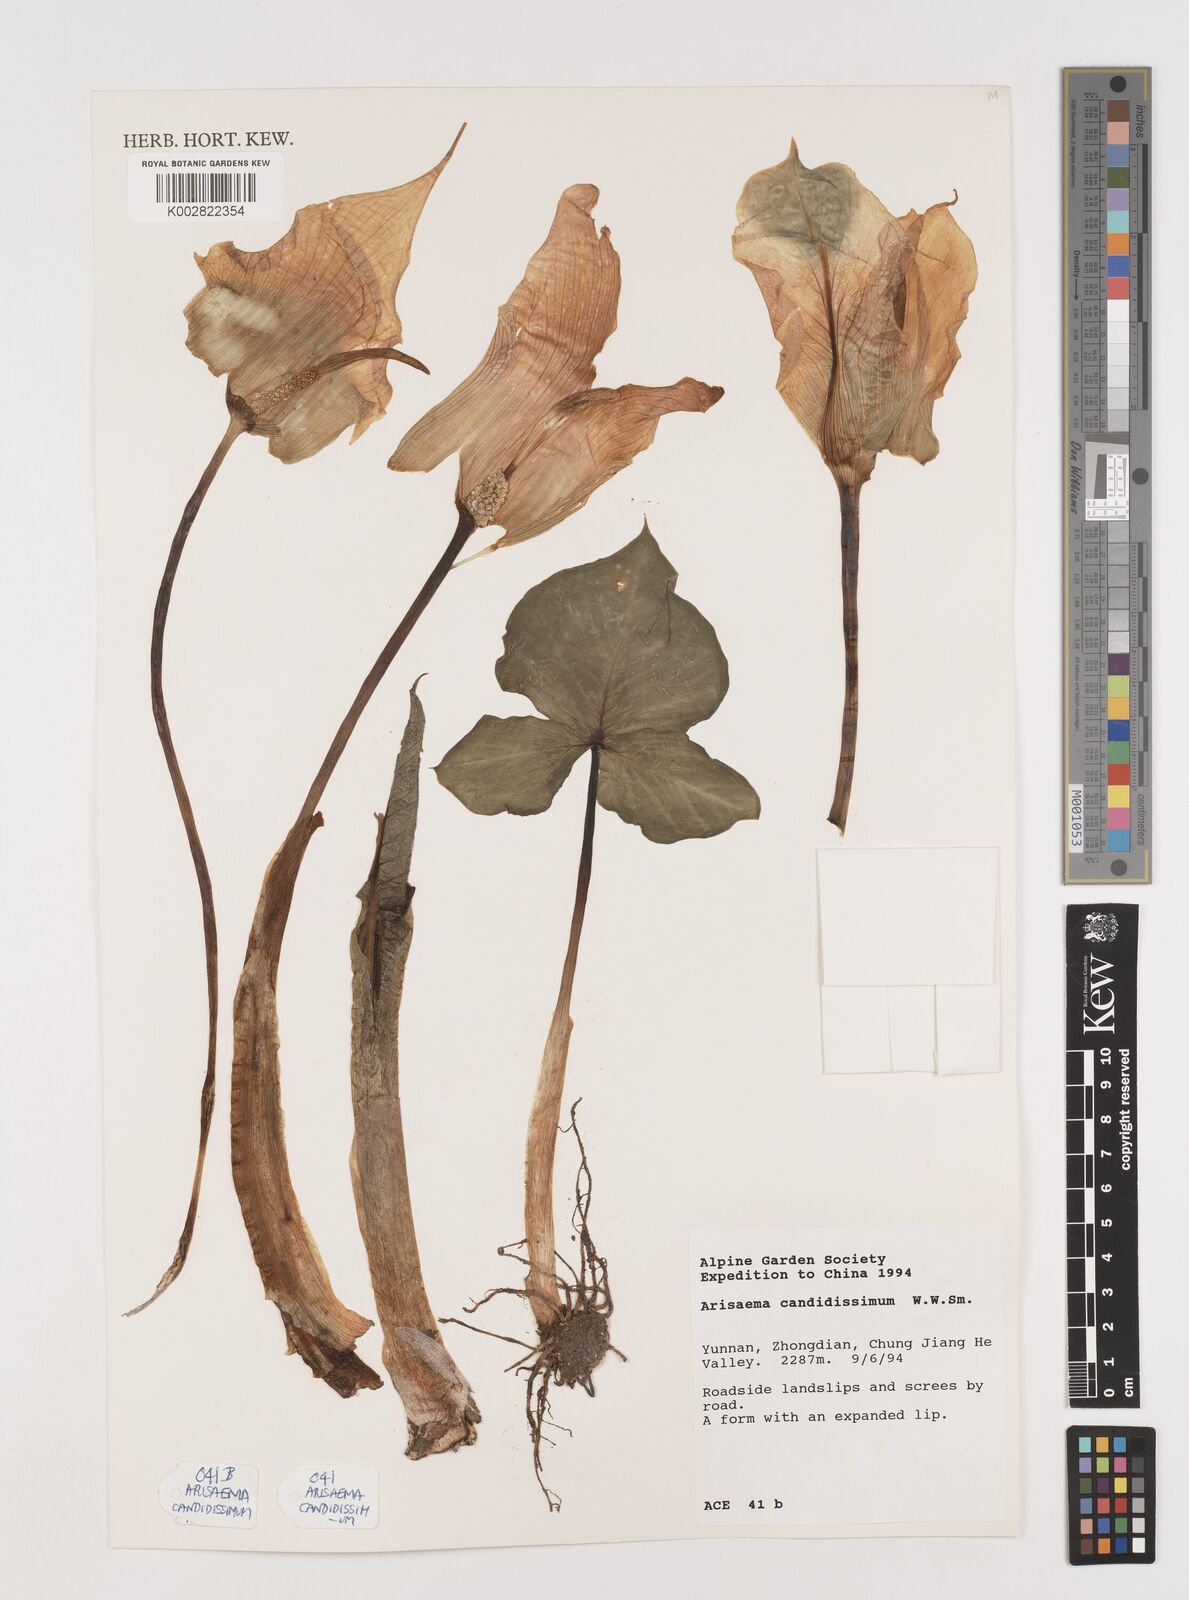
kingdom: Plantae
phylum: Tracheophyta
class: Liliopsida
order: Alismatales
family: Araceae
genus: Arisaema
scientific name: Arisaema candidissimum
